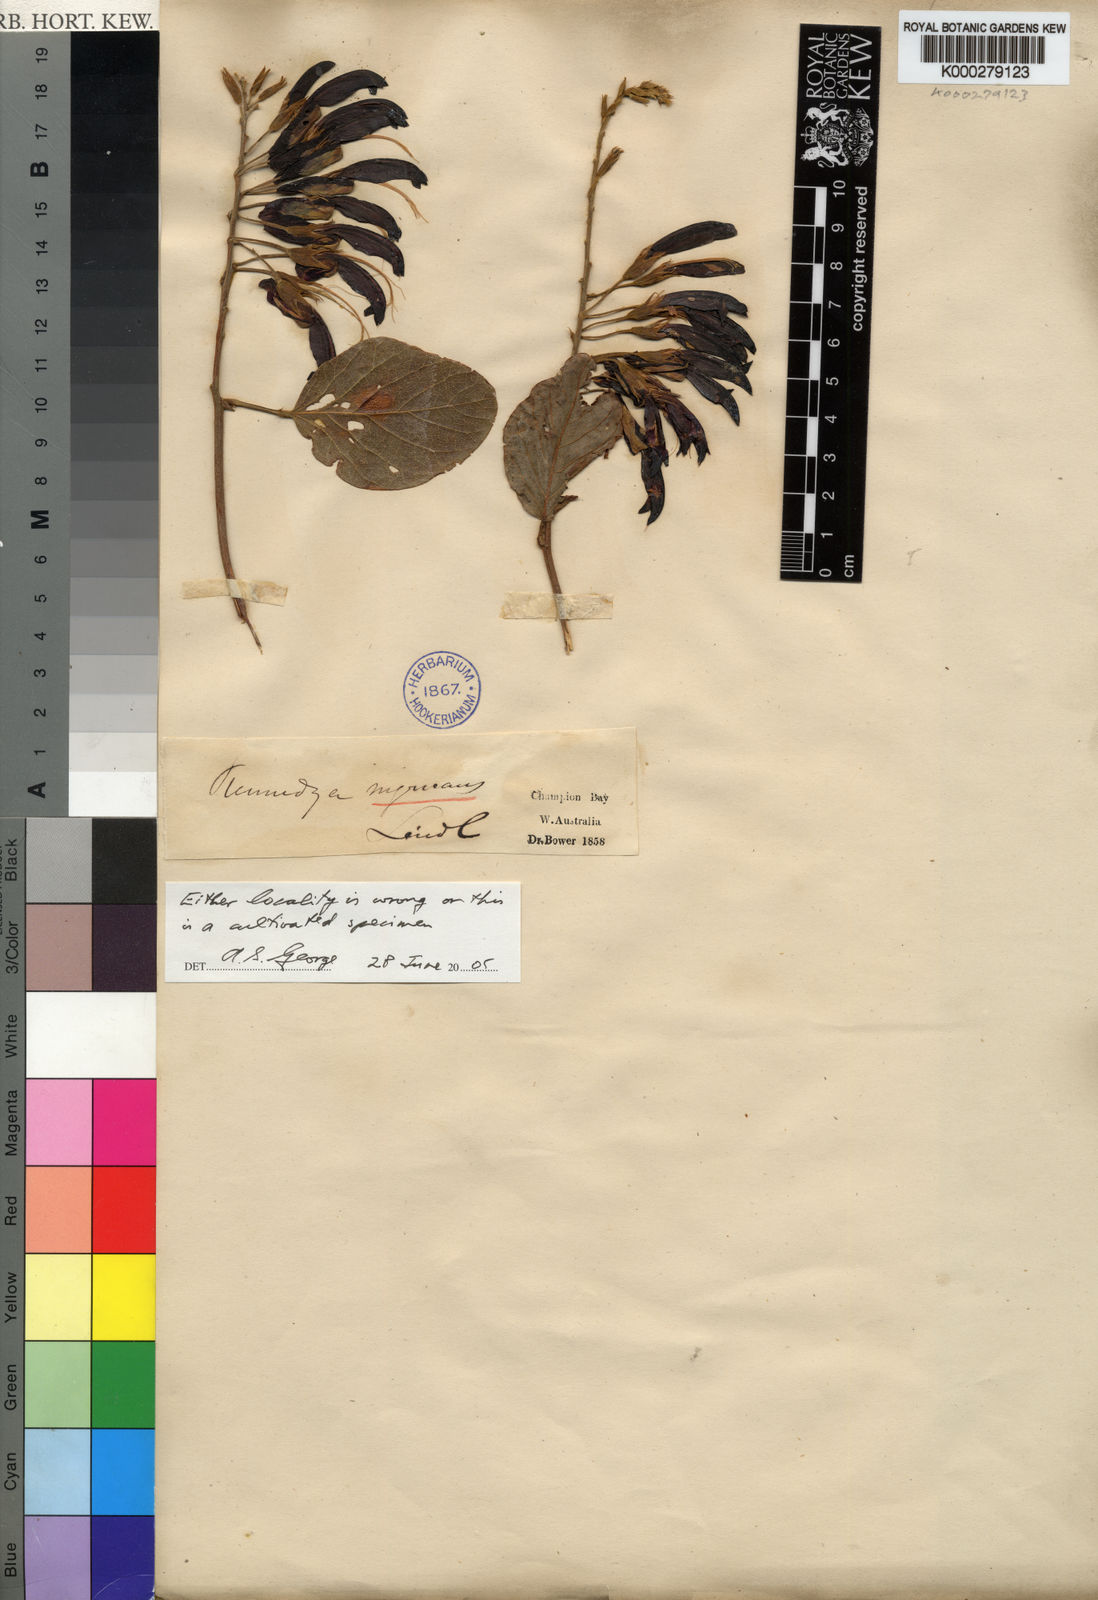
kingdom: Plantae
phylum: Tracheophyta
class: Magnoliopsida
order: Fabales
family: Fabaceae
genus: Kennedia
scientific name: Kennedia nigricans
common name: Black-bean
